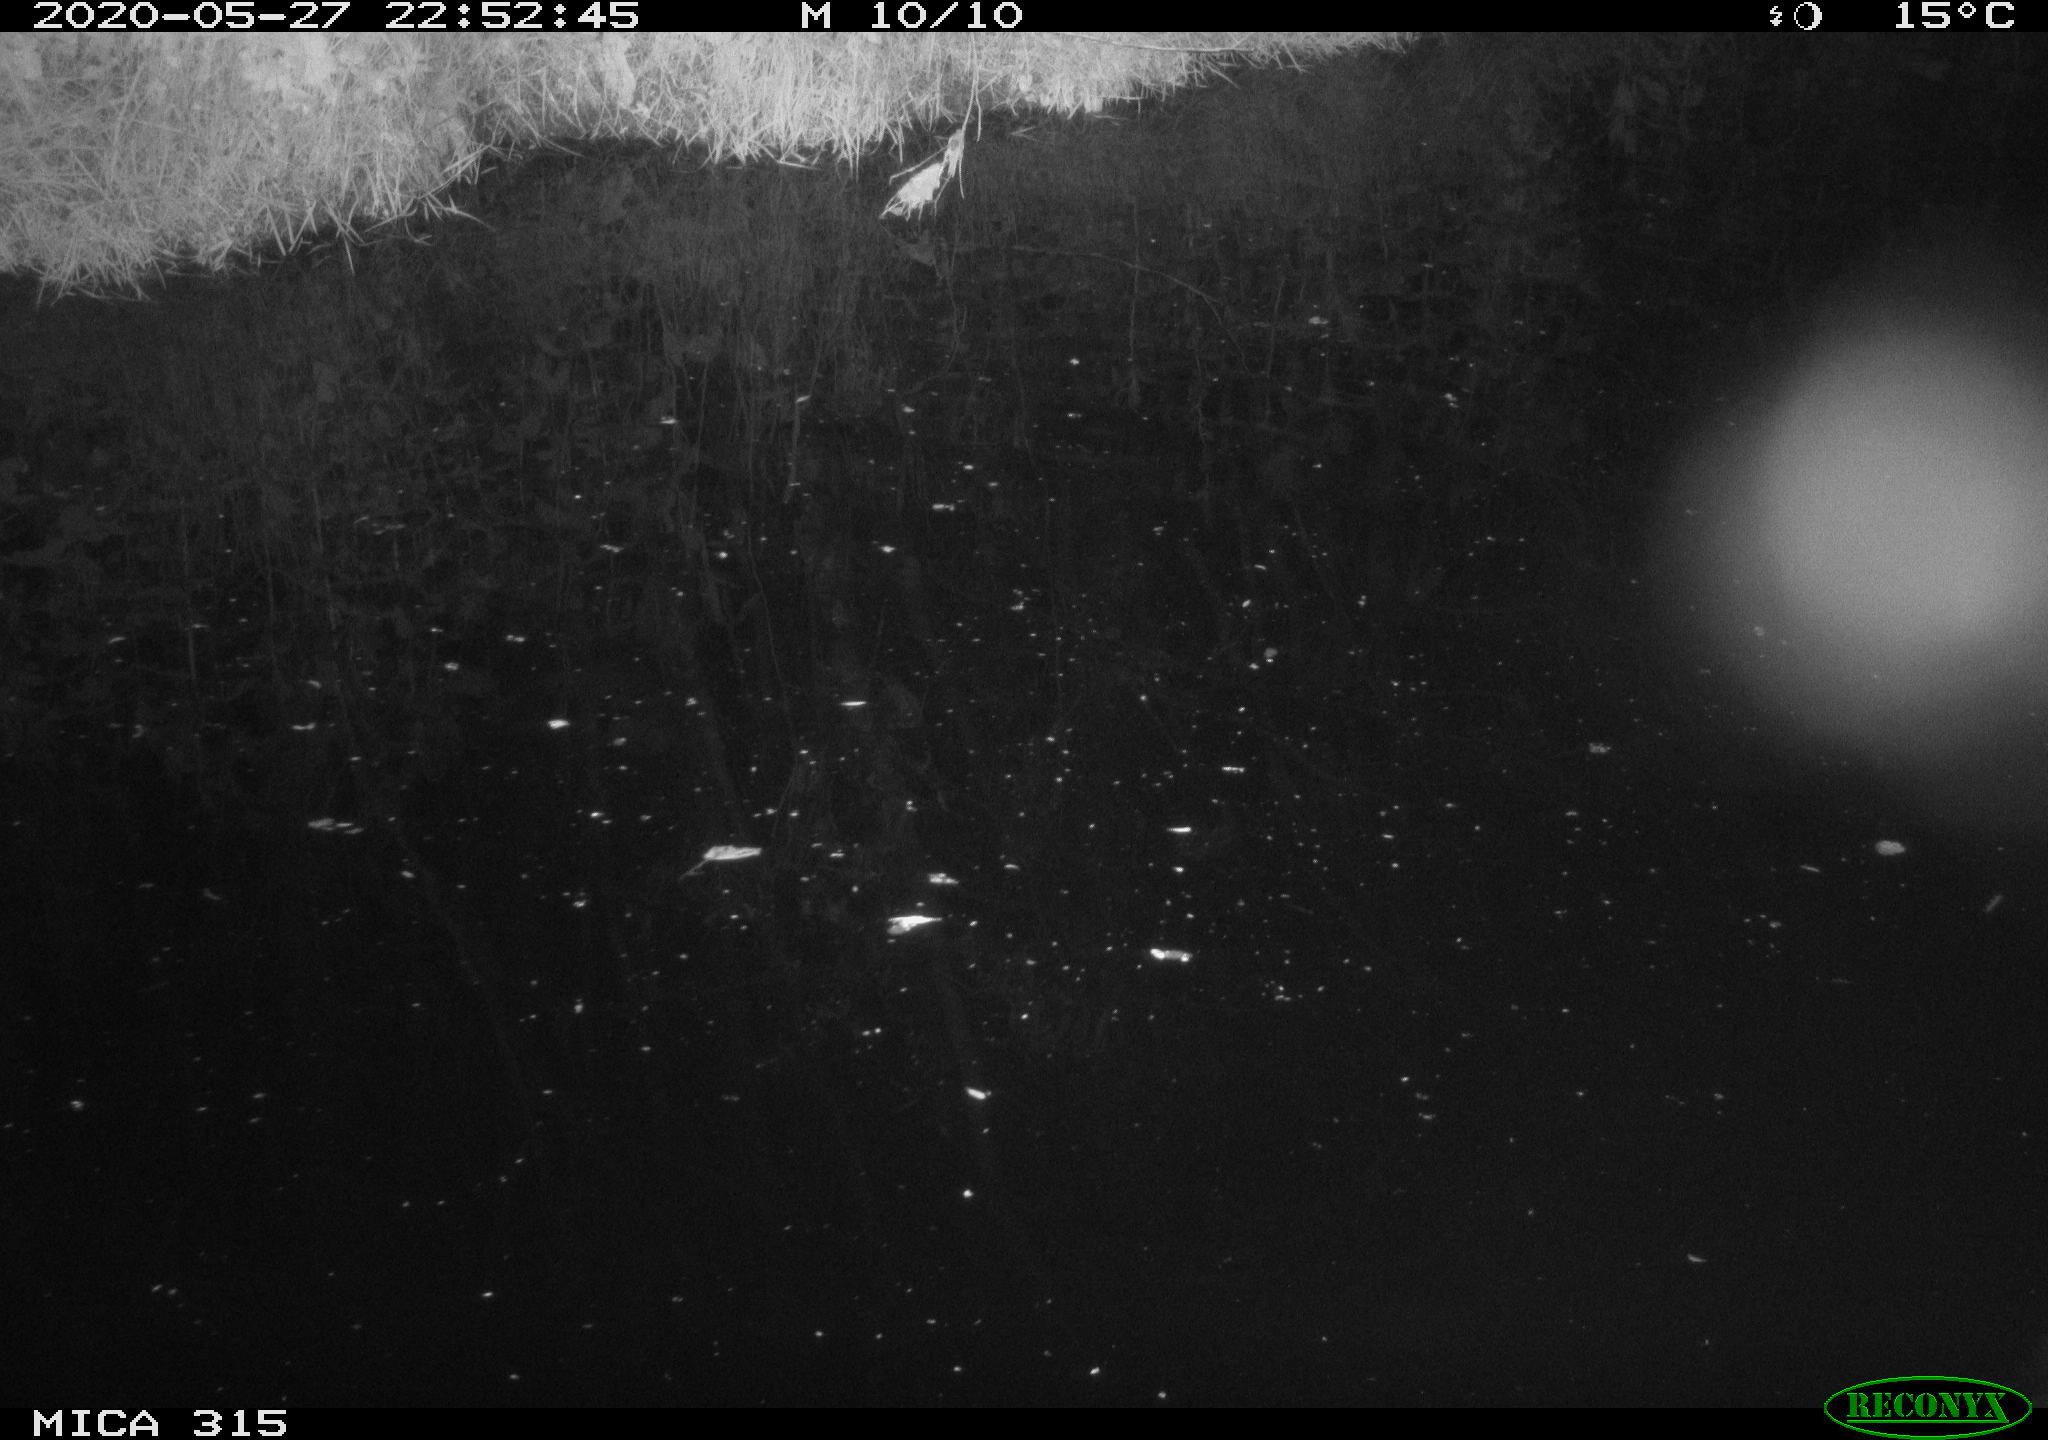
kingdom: Animalia
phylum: Chordata
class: Aves
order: Anseriformes
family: Anatidae
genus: Anas
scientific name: Anas platyrhynchos
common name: Mallard
